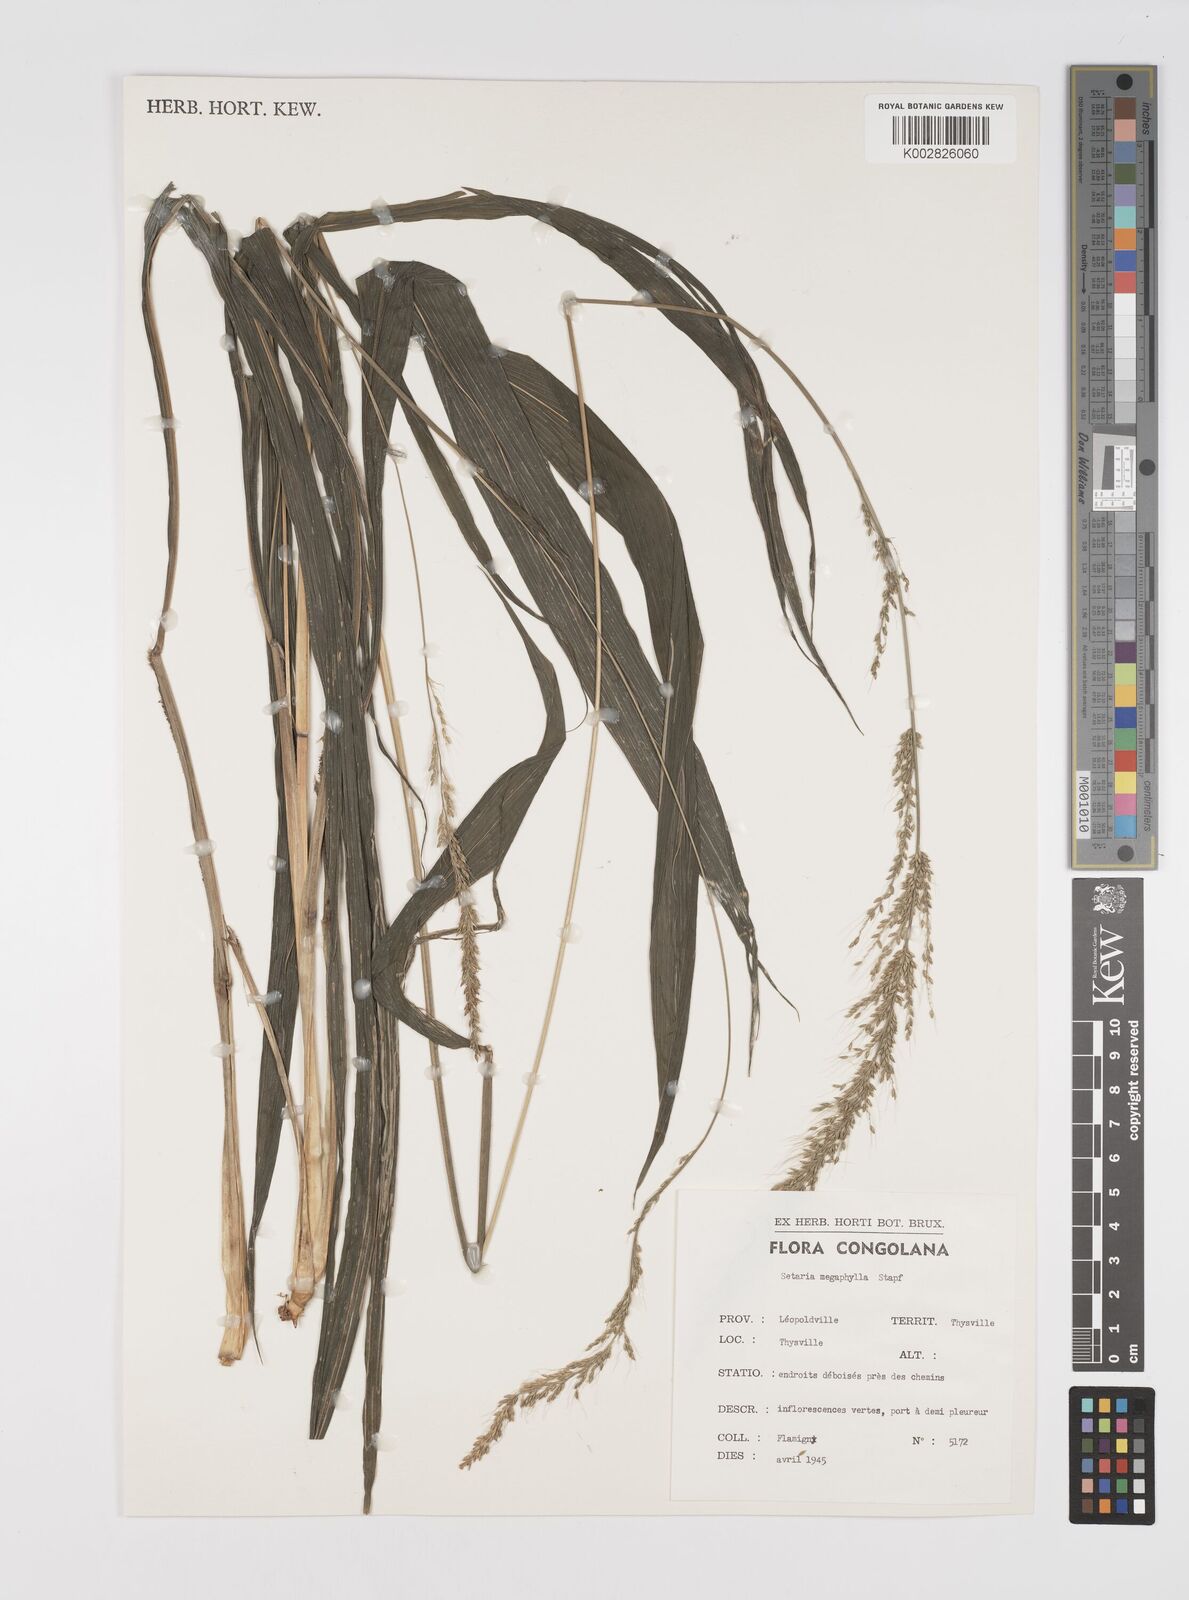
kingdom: Plantae
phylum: Tracheophyta
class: Liliopsida
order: Poales
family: Poaceae
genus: Setaria
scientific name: Setaria megaphylla
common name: Bigleaf bristlegrass
